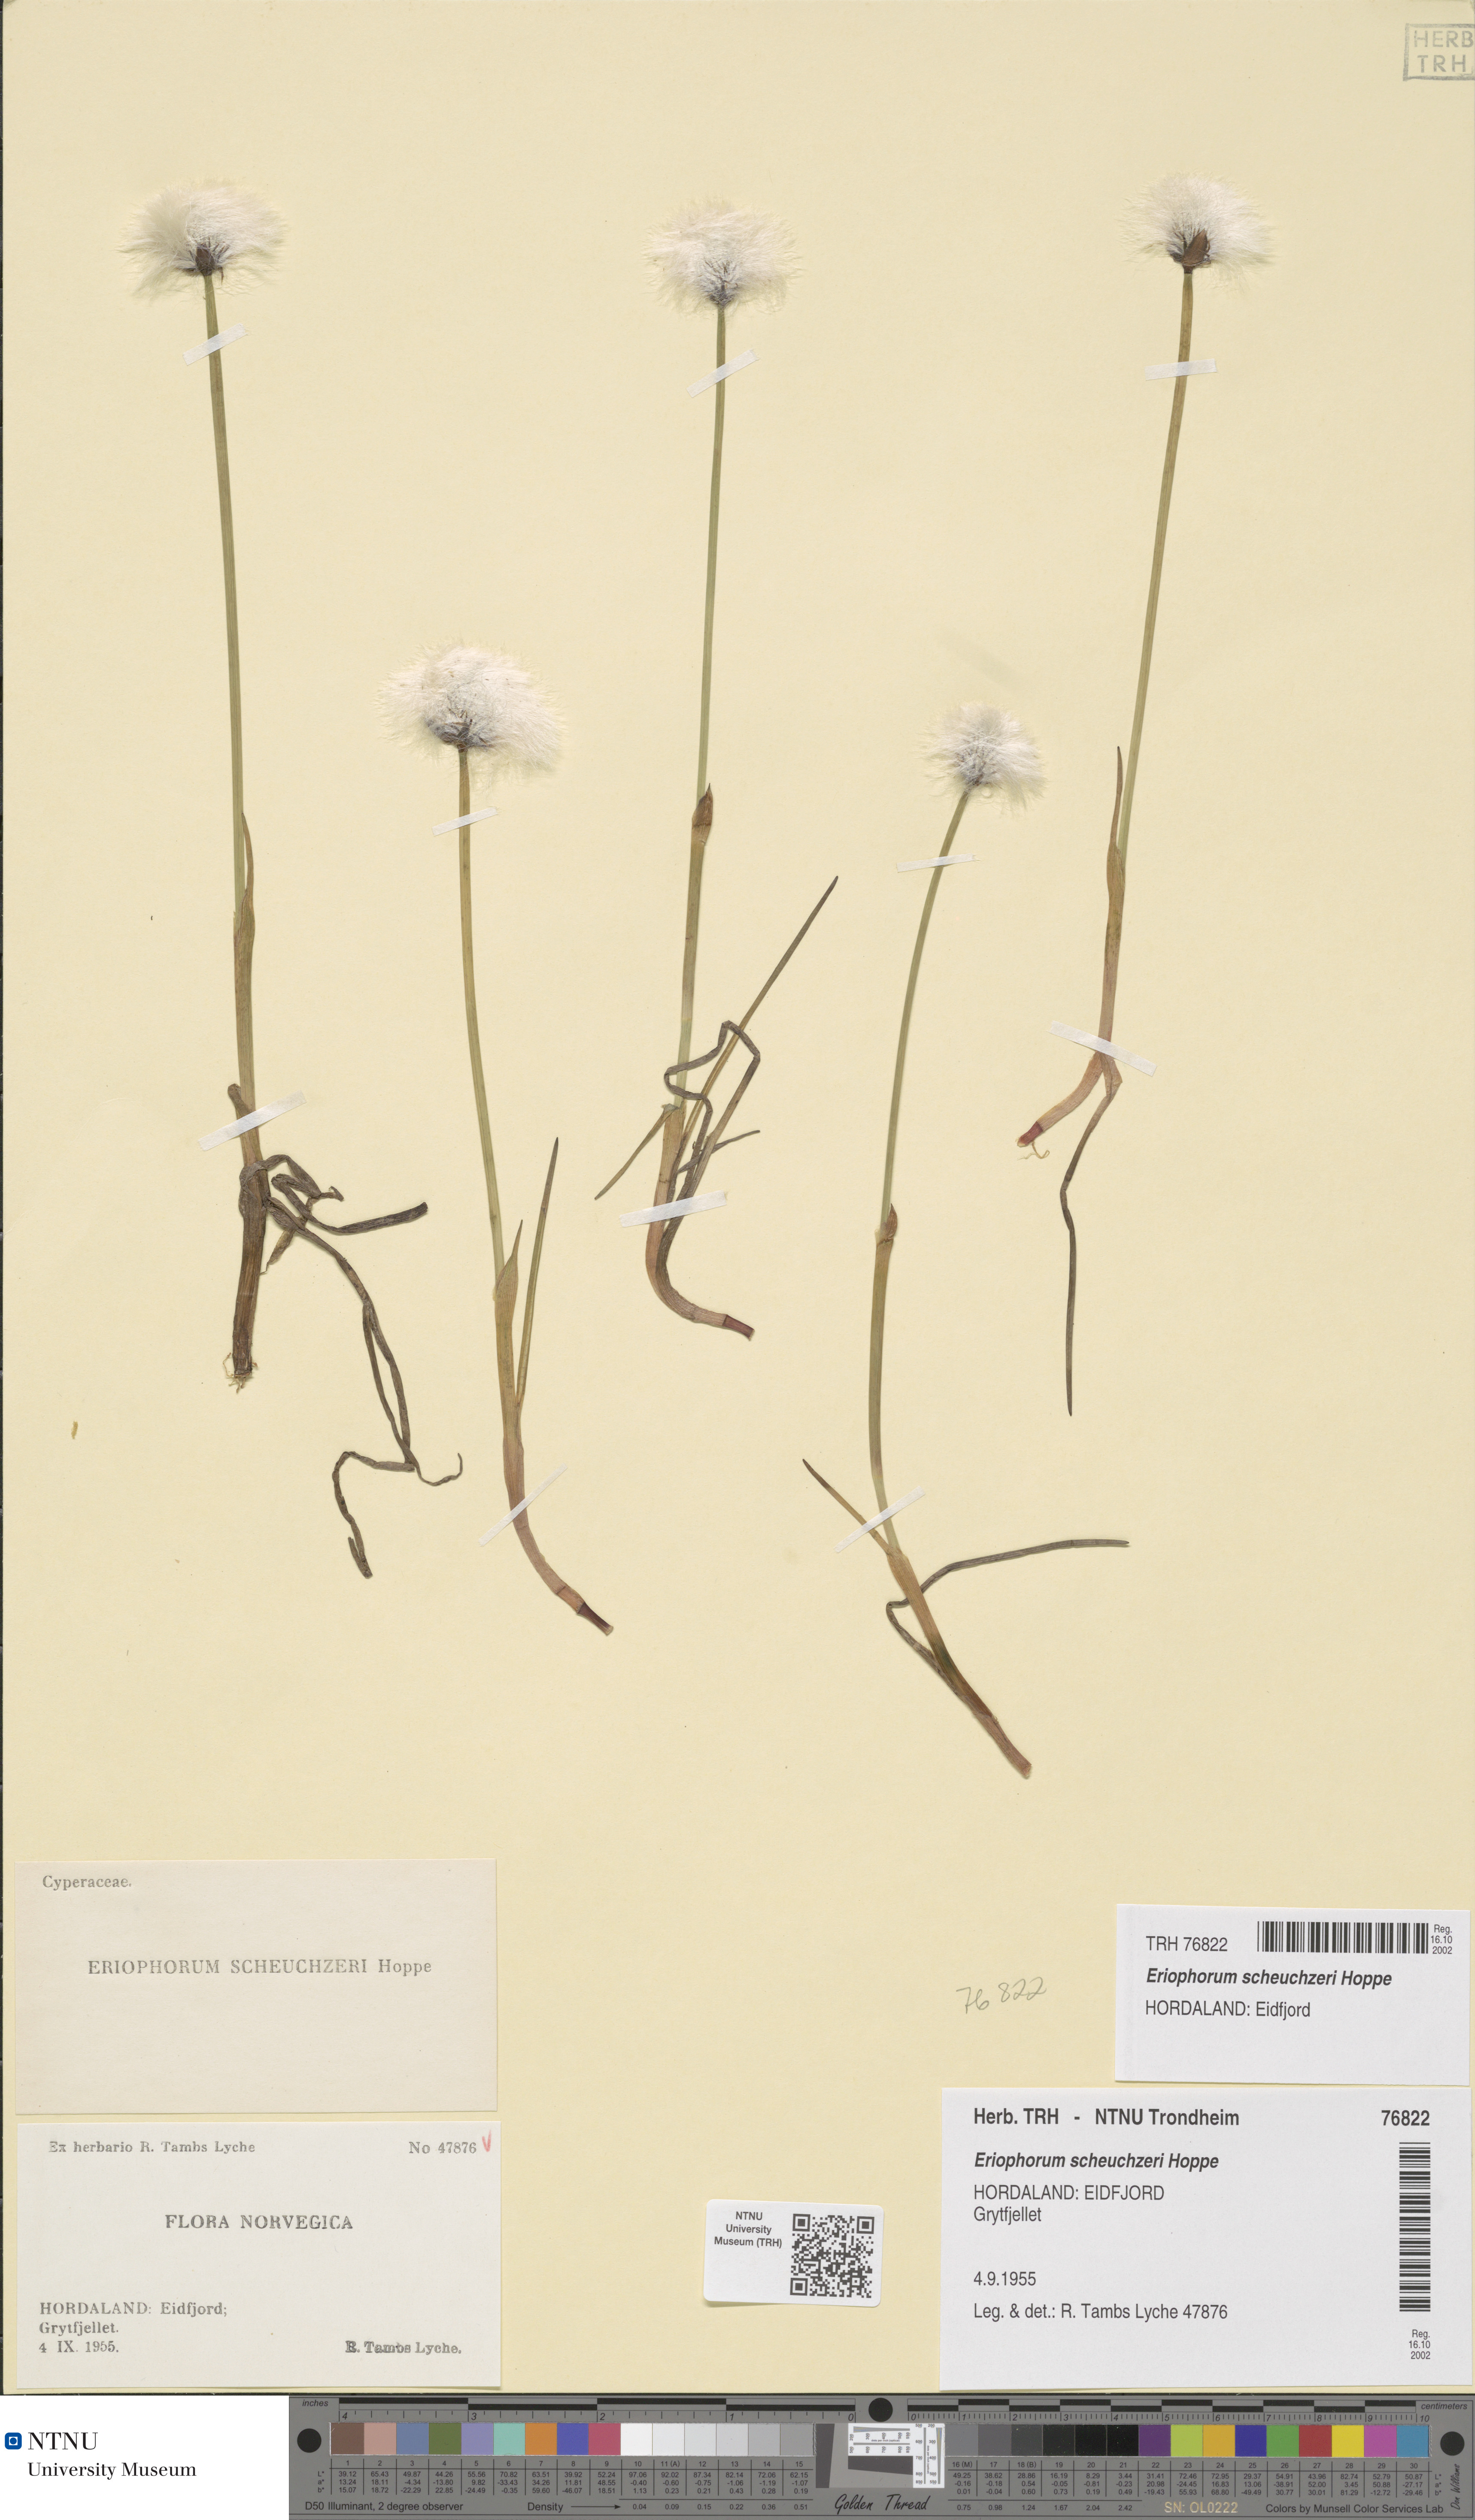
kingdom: Plantae
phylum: Tracheophyta
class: Liliopsida
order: Poales
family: Cyperaceae
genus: Eriophorum
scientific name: Eriophorum scheuchzeri
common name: Scheuchzer's cottongrass
